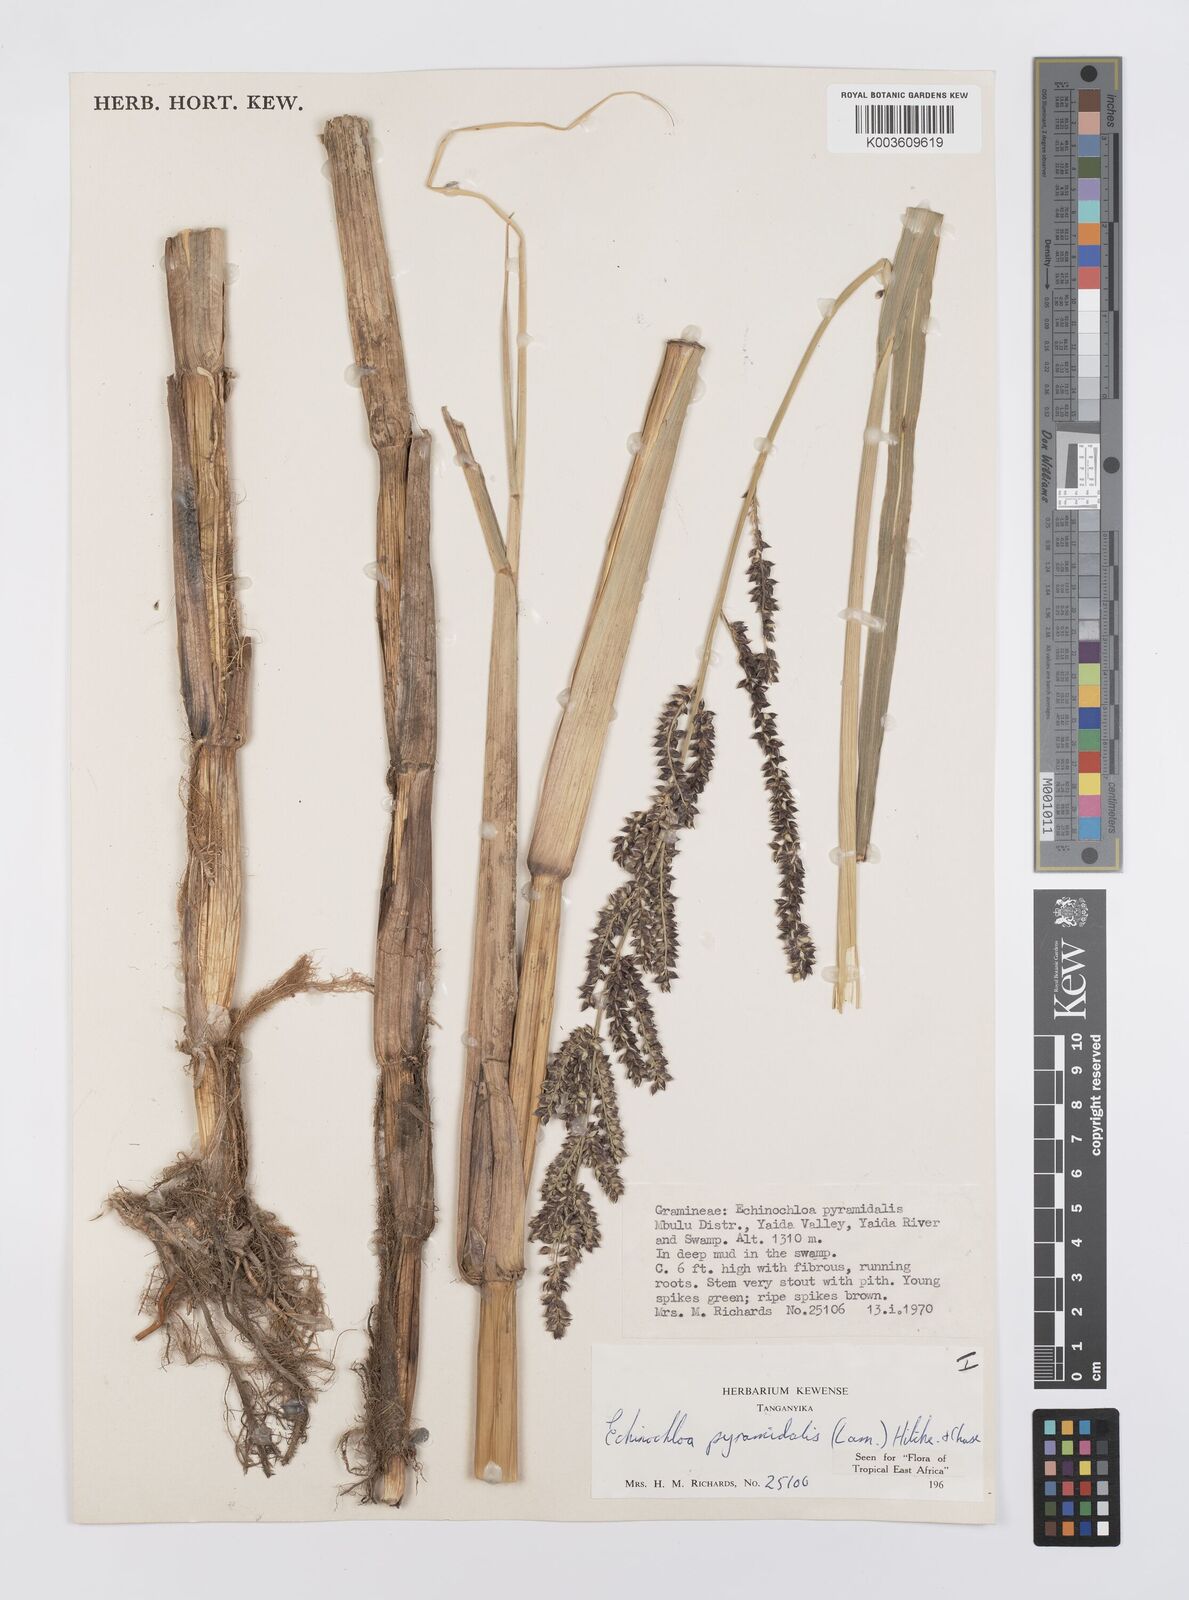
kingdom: Plantae
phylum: Tracheophyta
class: Liliopsida
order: Poales
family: Poaceae
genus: Echinochloa
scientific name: Echinochloa pyramidalis
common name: Antelope grass
